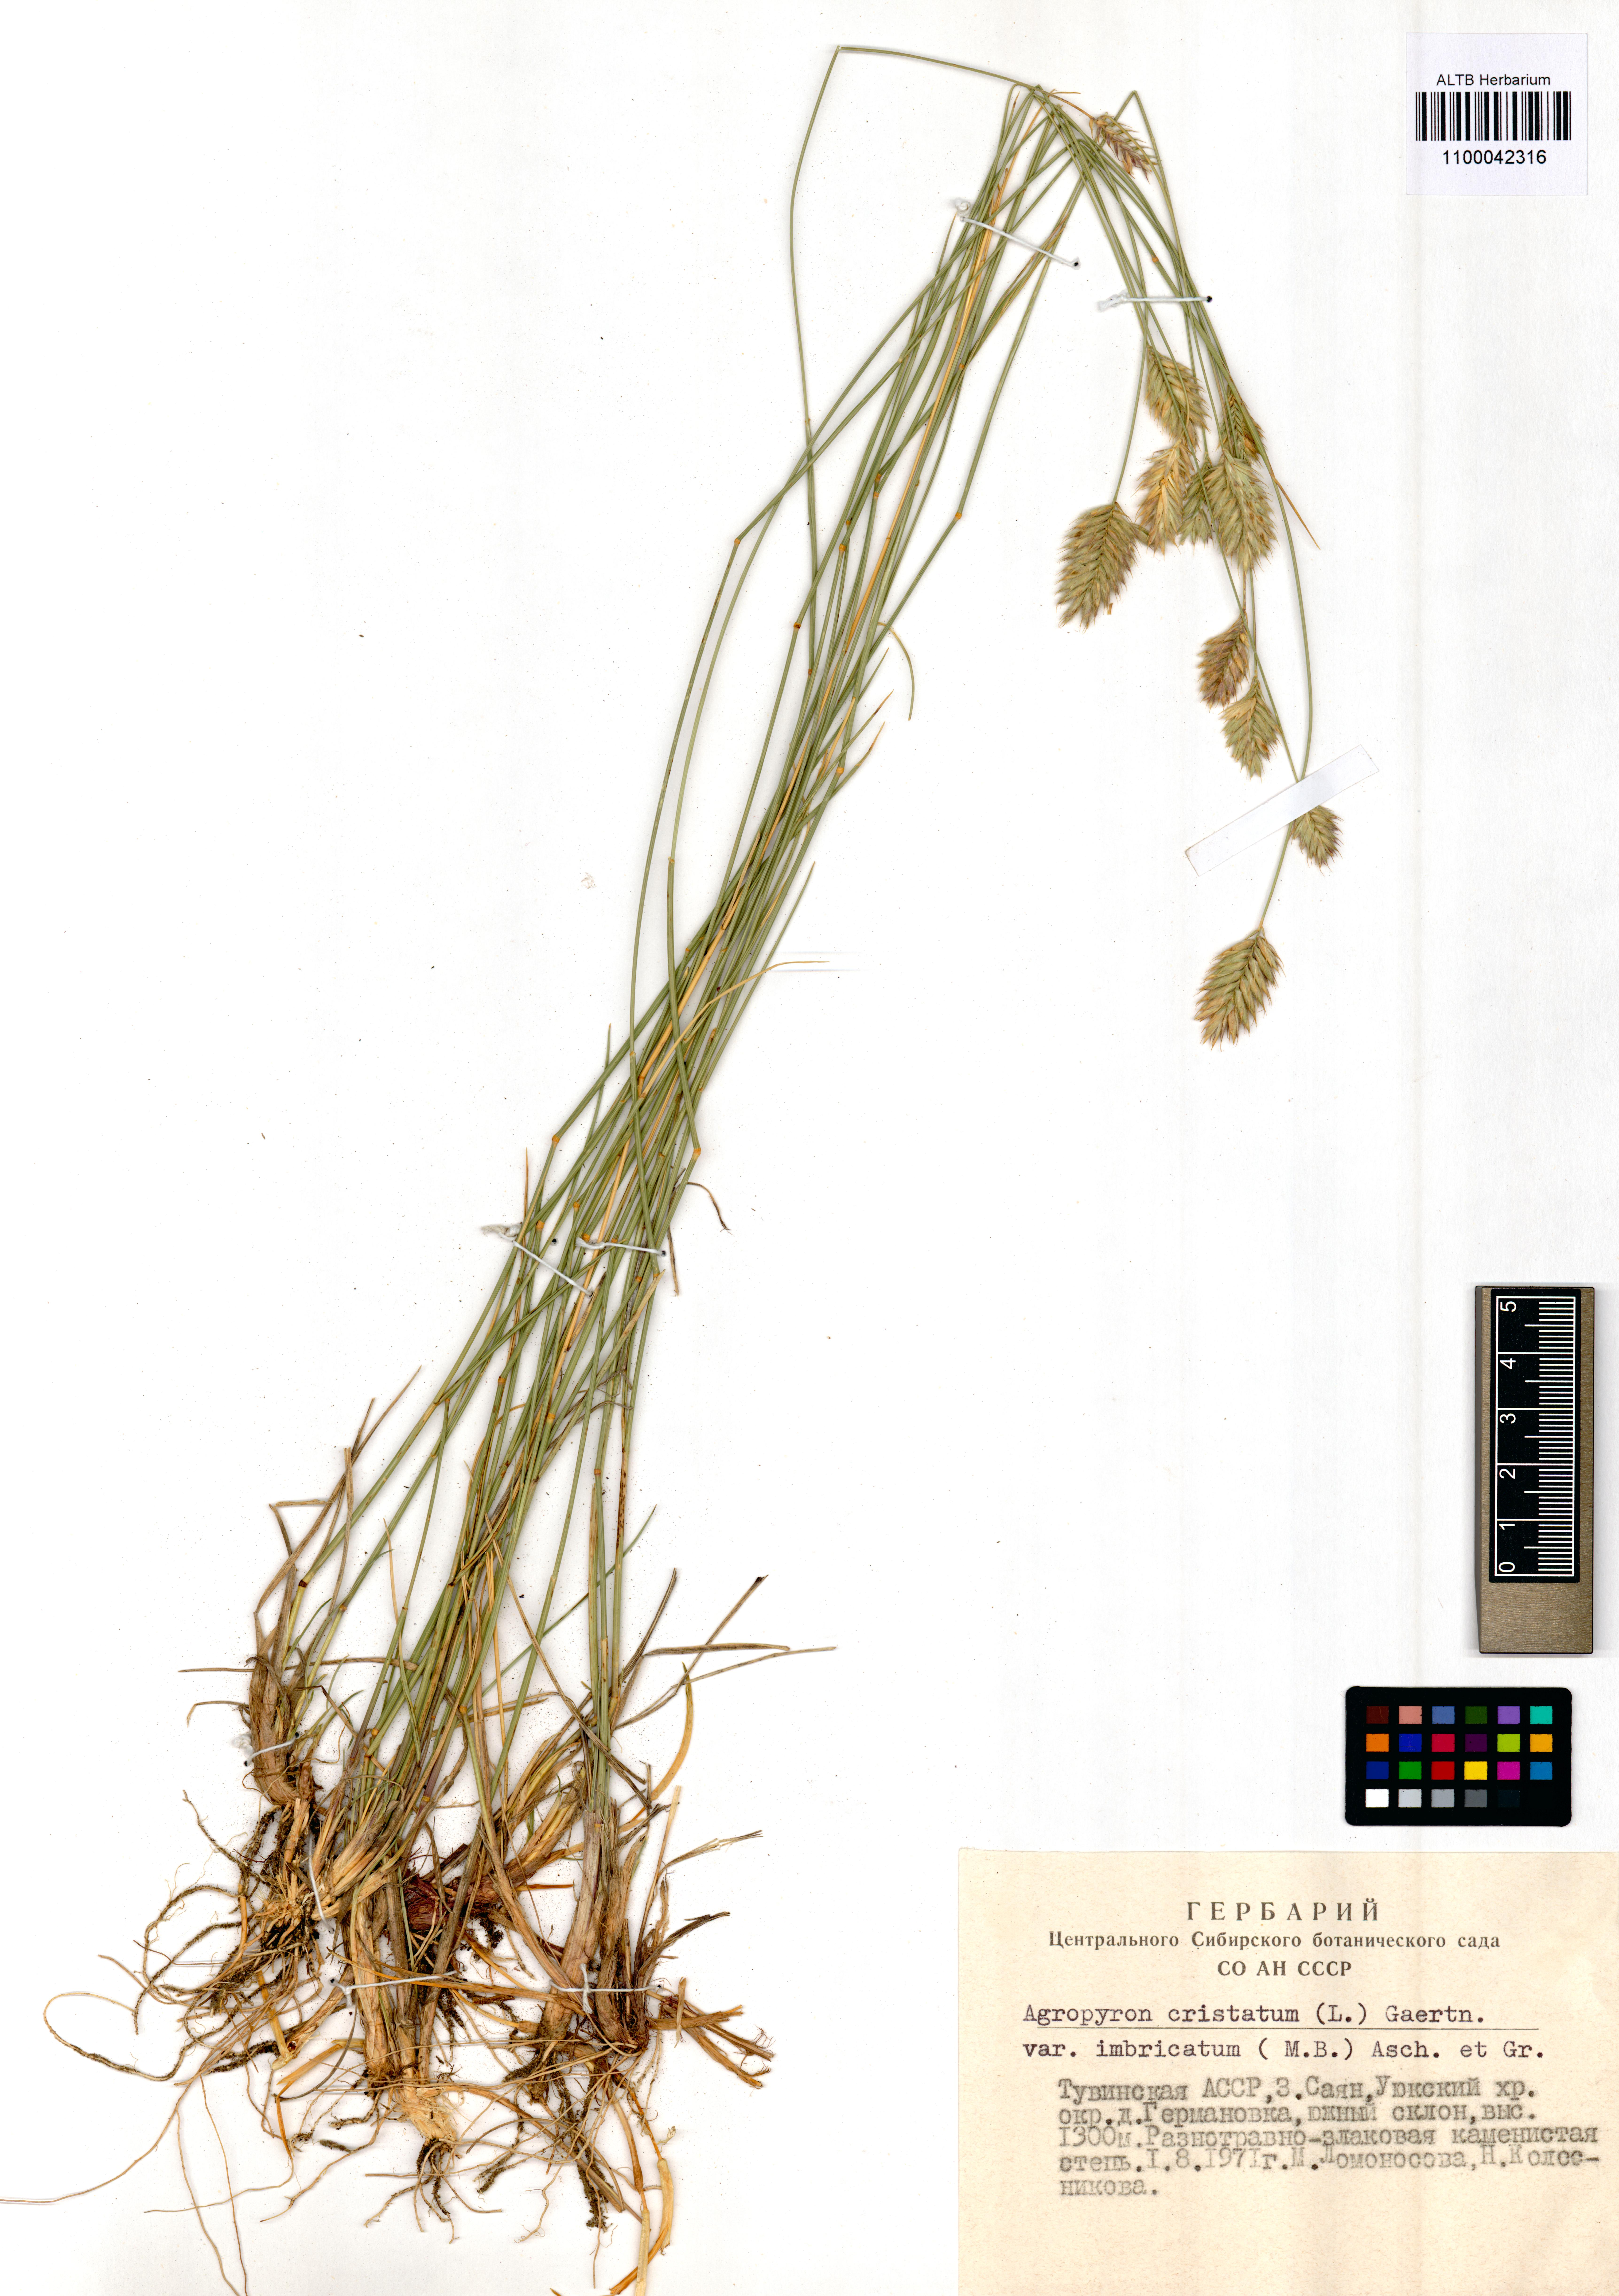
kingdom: Plantae
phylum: Tracheophyta
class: Liliopsida
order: Poales
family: Poaceae
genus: Agropyron
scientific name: Agropyron cristatum
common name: Crested wheatgrass
